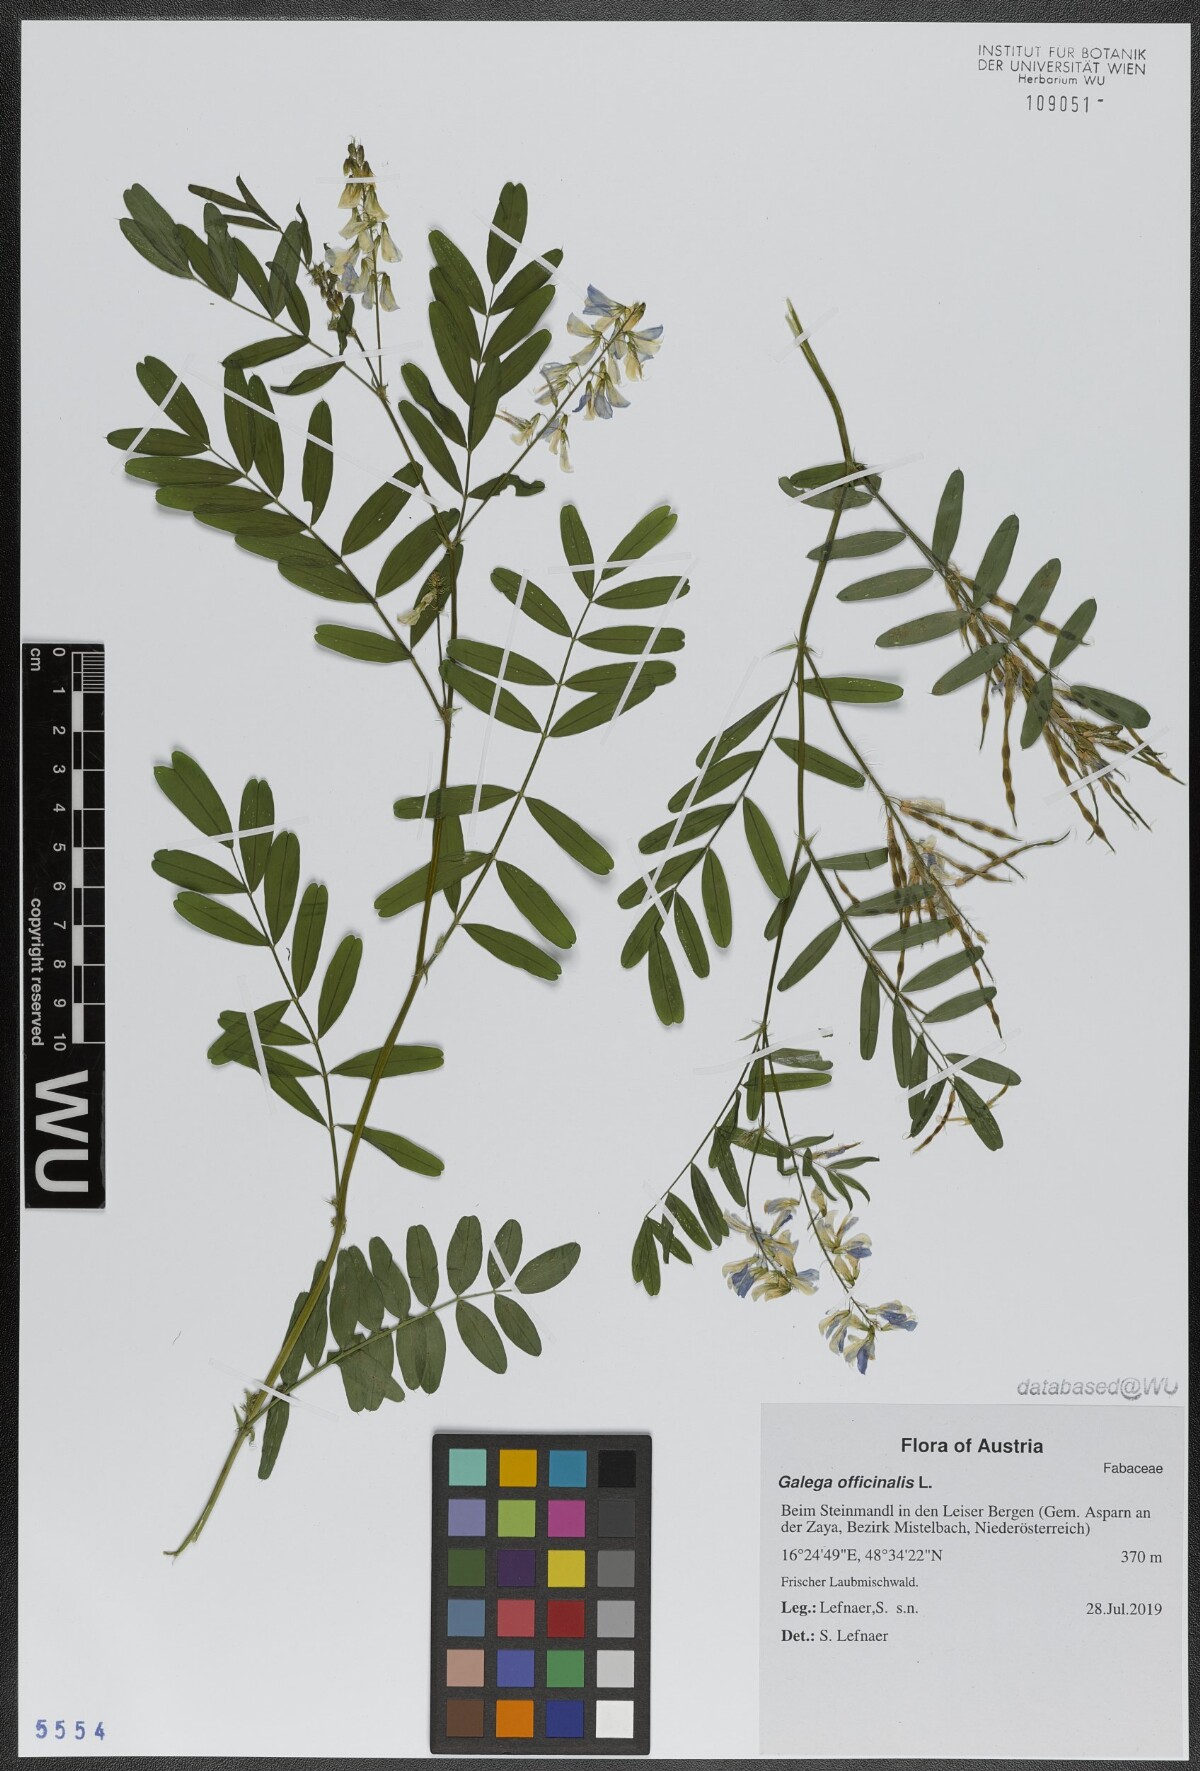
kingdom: Plantae
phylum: Tracheophyta
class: Magnoliopsida
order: Fabales
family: Fabaceae
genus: Galega
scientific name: Galega officinalis
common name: Goat's-rue
